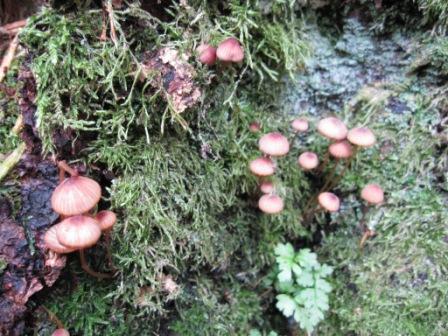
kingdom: Fungi
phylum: Basidiomycota
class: Agaricomycetes
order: Agaricales
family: Mycenaceae
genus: Mycena
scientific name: Mycena sanguinolenta
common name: rødmælket huesvamp
